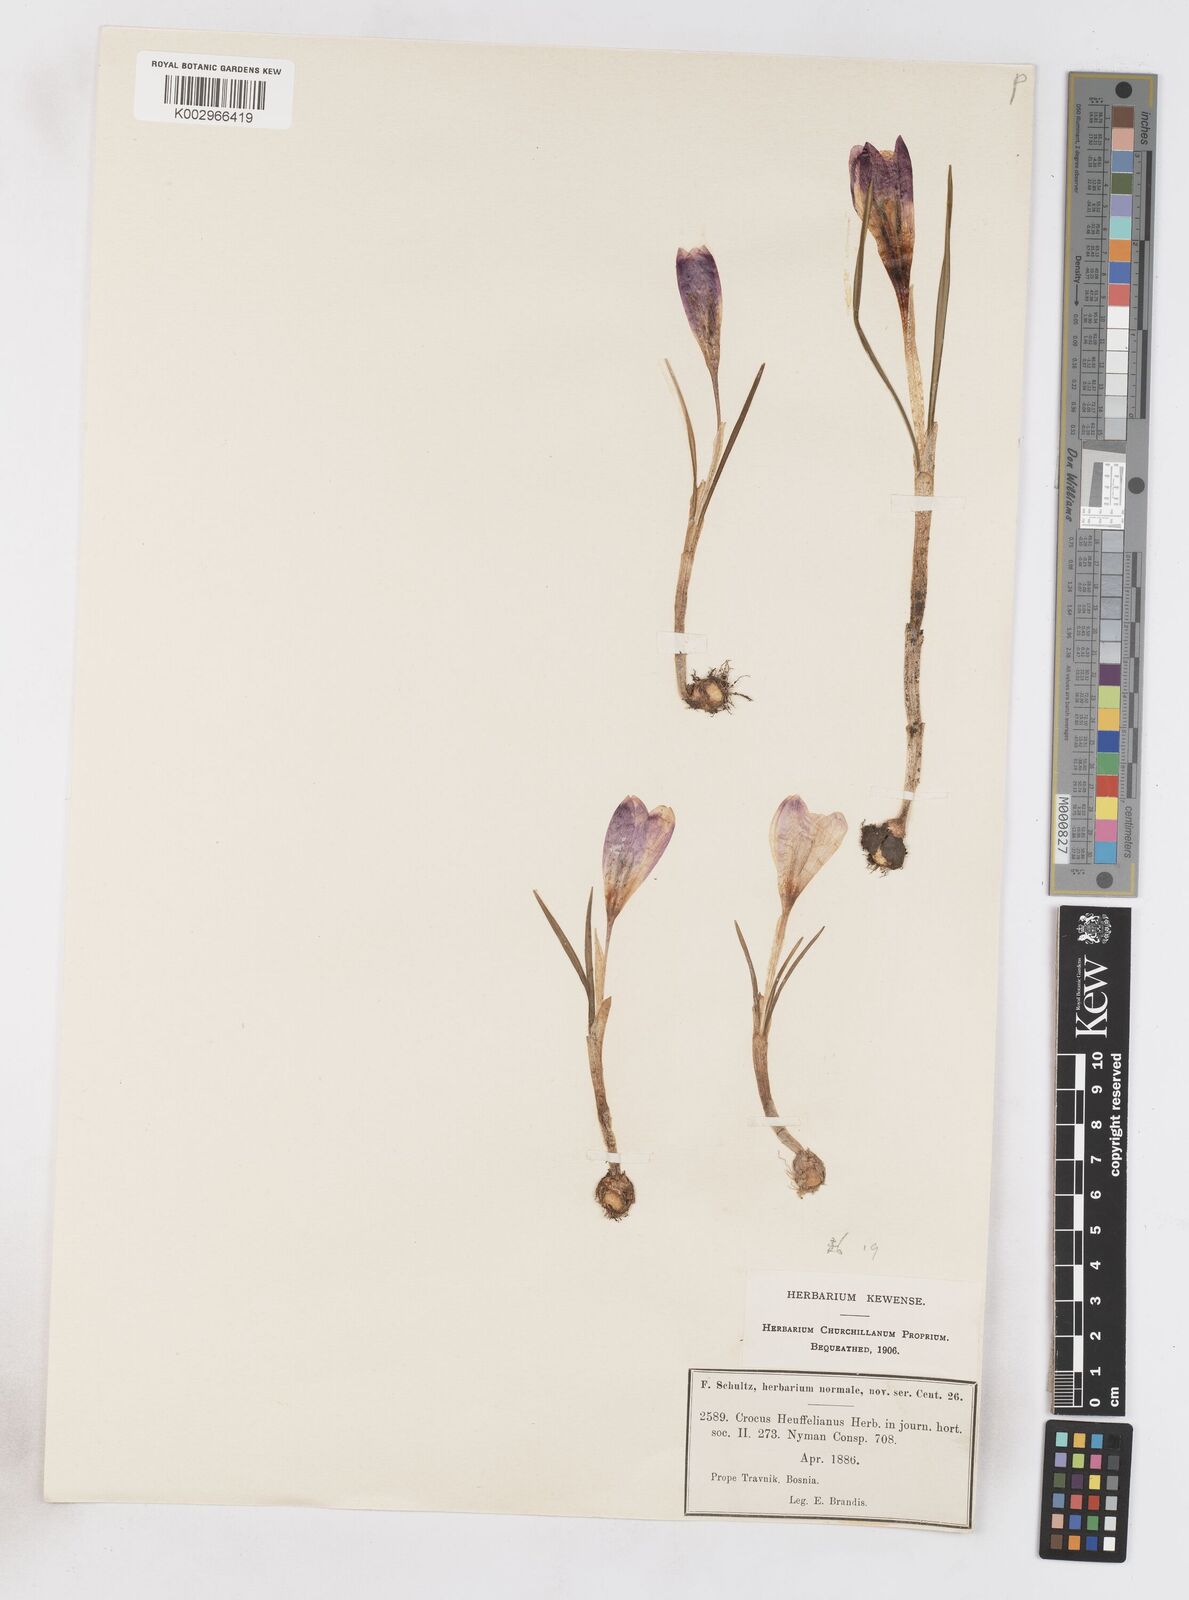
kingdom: Plantae
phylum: Tracheophyta
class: Liliopsida
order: Asparagales
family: Iridaceae
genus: Crocus
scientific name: Crocus vernus
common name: Spring crocus
